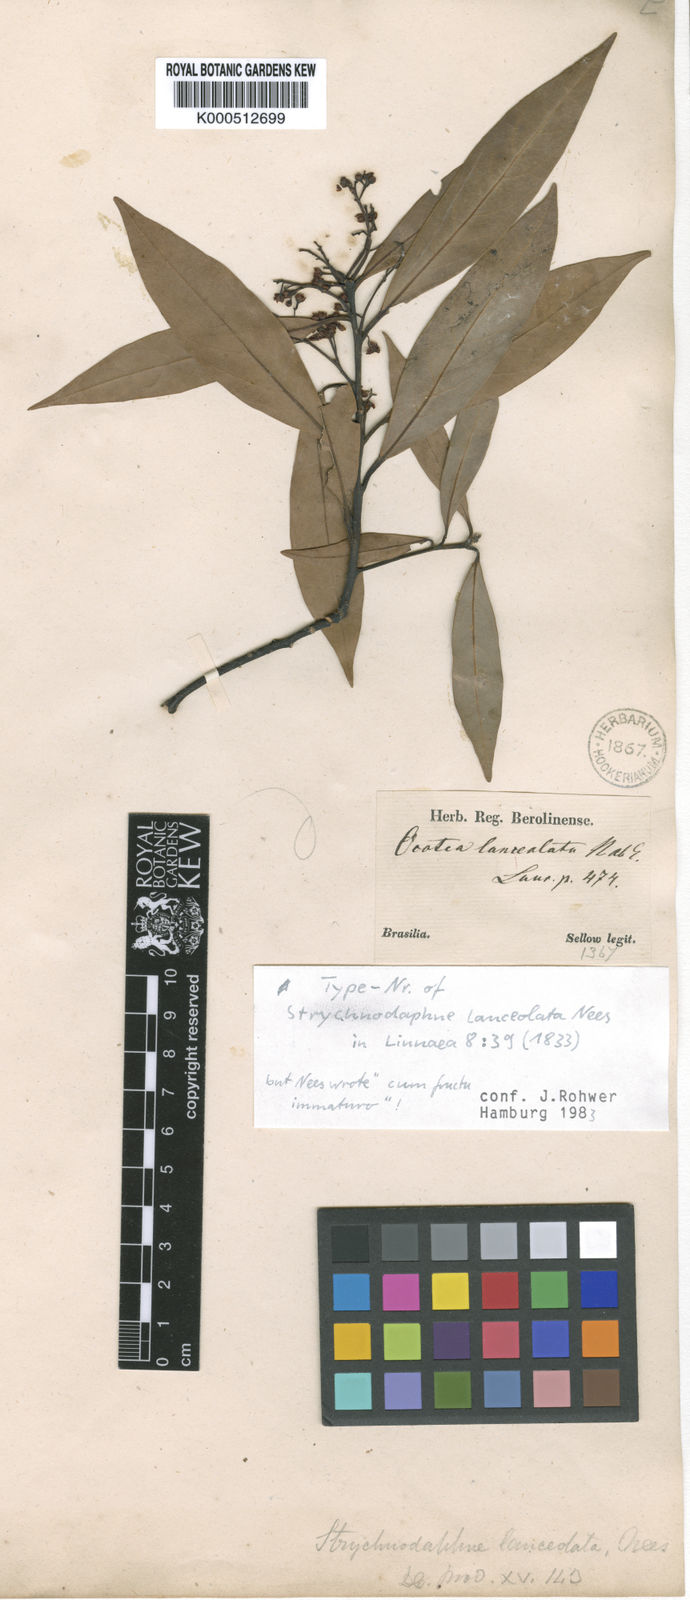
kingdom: Plantae
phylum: Tracheophyta
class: Magnoliopsida
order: Laurales
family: Lauraceae
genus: Phoebe
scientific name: Phoebe lanceolata
